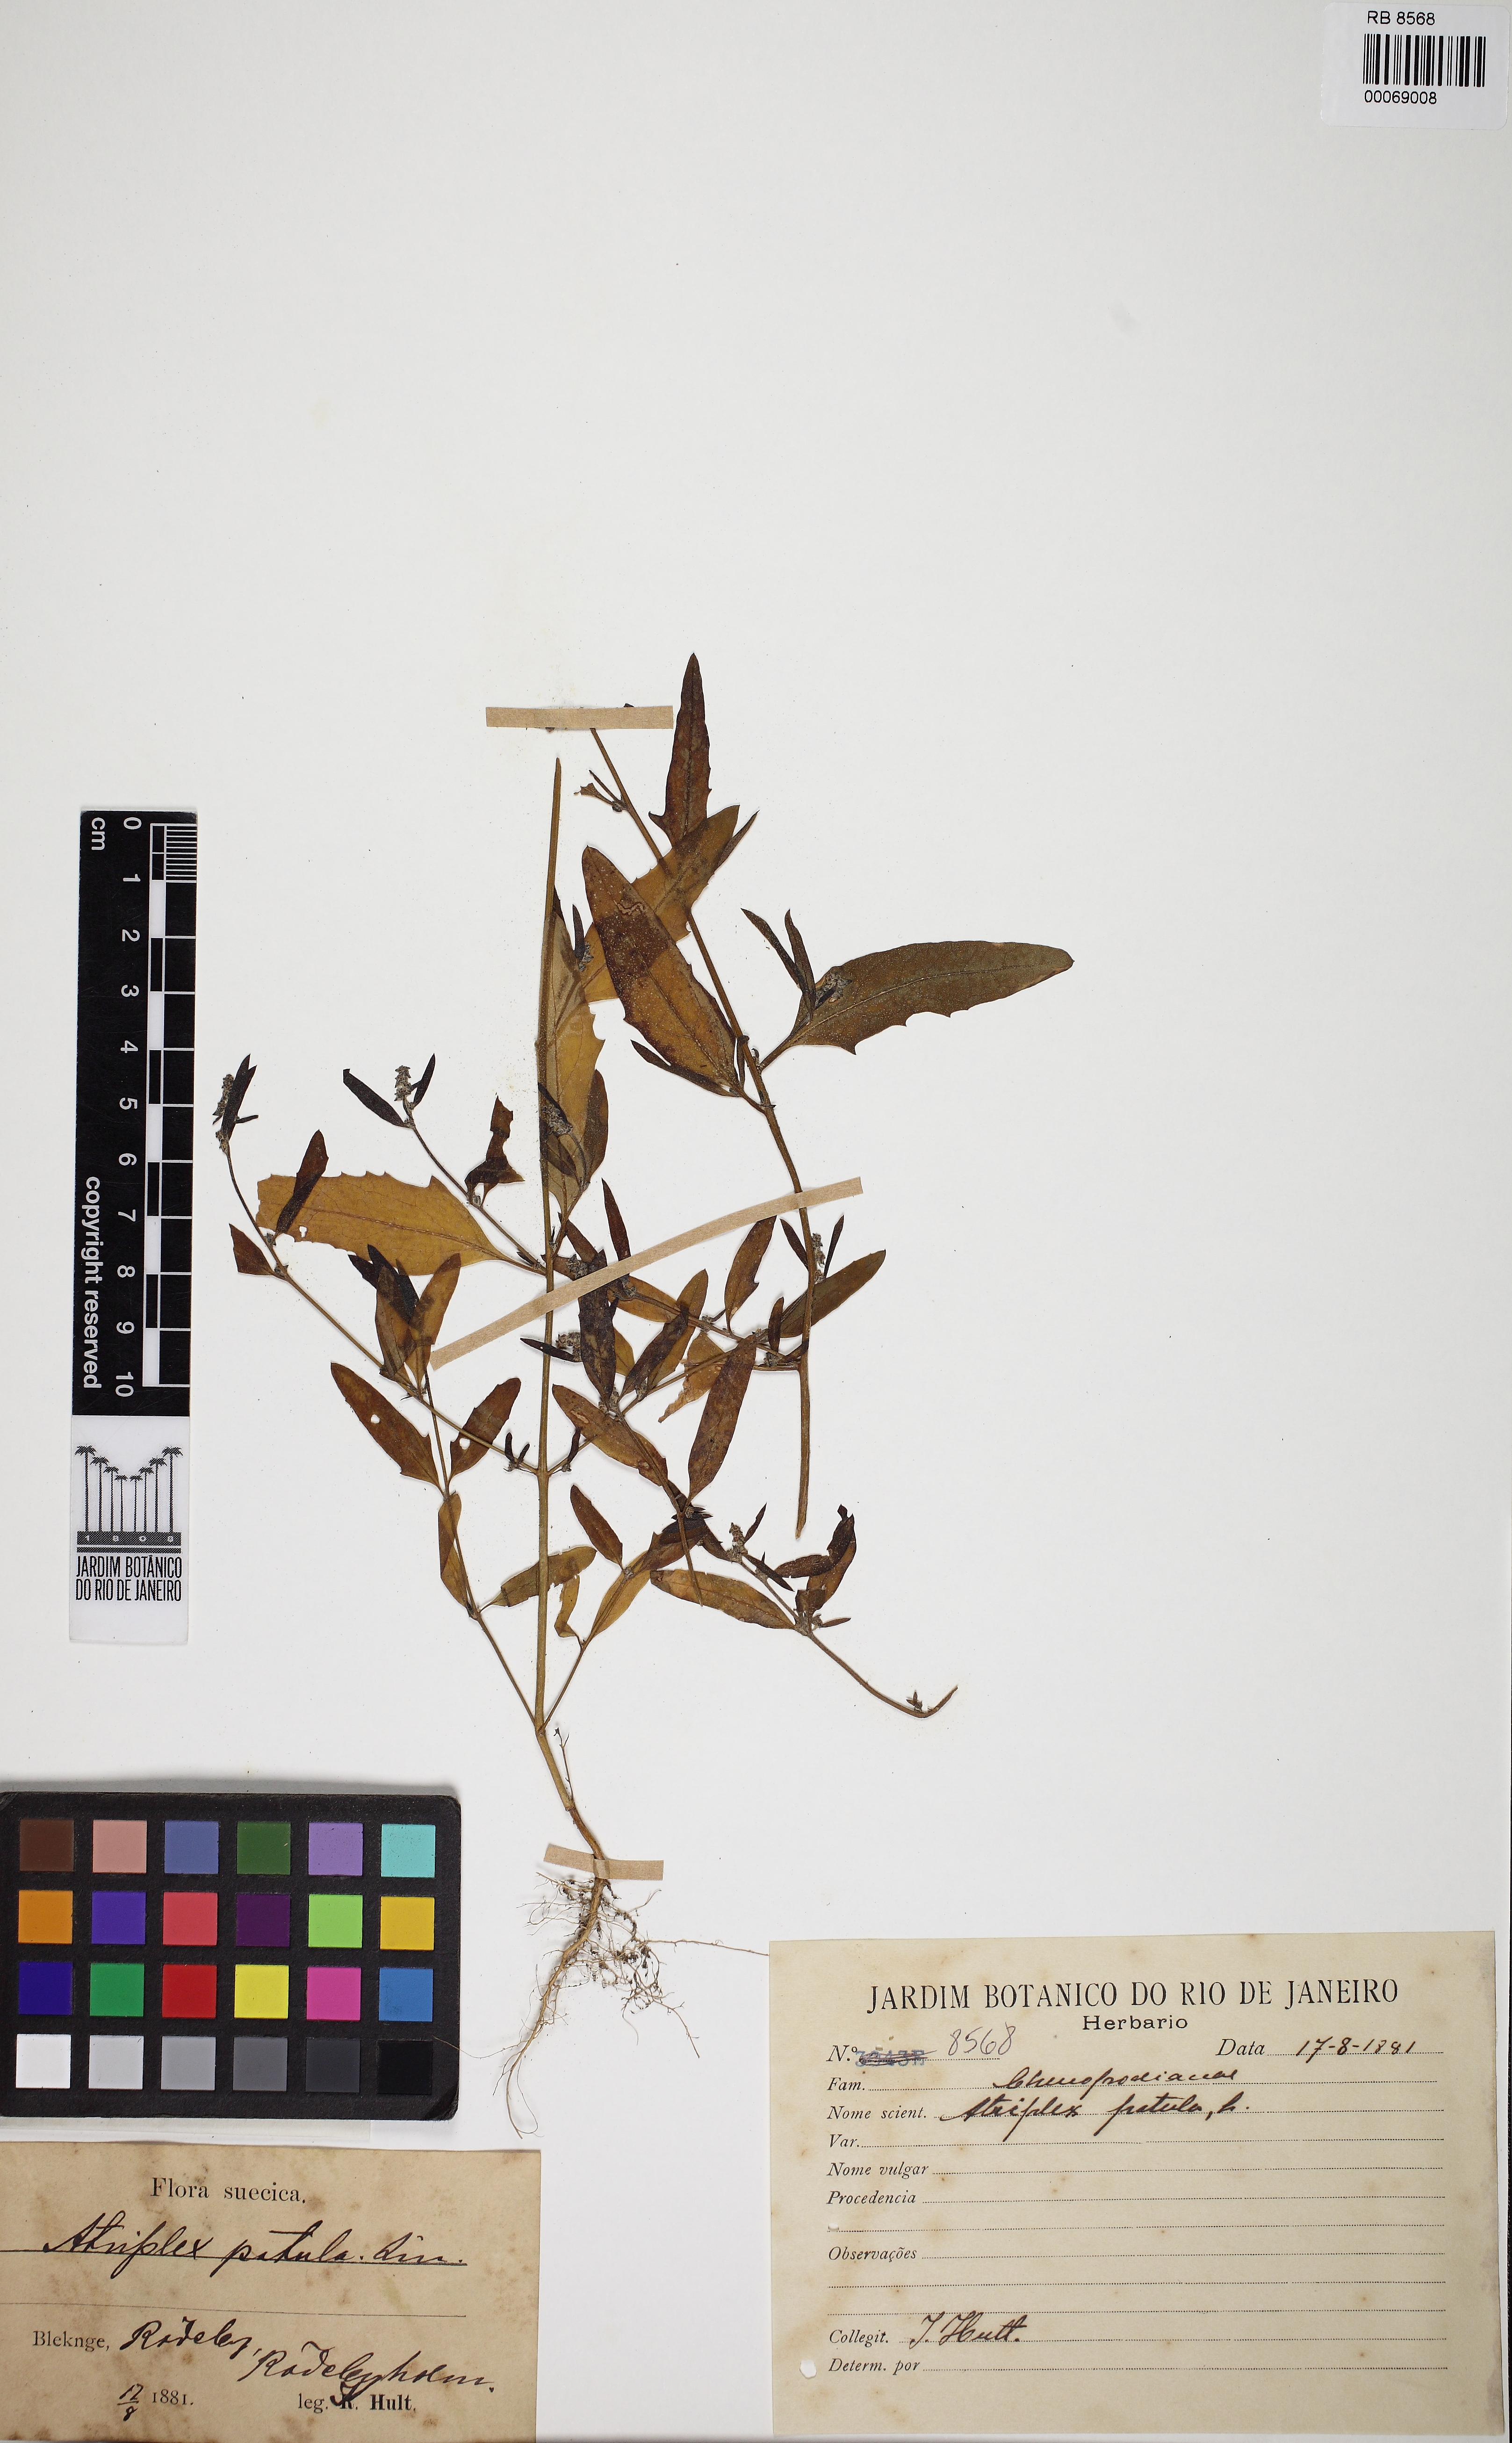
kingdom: Plantae
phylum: Tracheophyta
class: Magnoliopsida
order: Caryophyllales
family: Amaranthaceae
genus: Atriplex
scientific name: Atriplex patula
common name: Common orache
